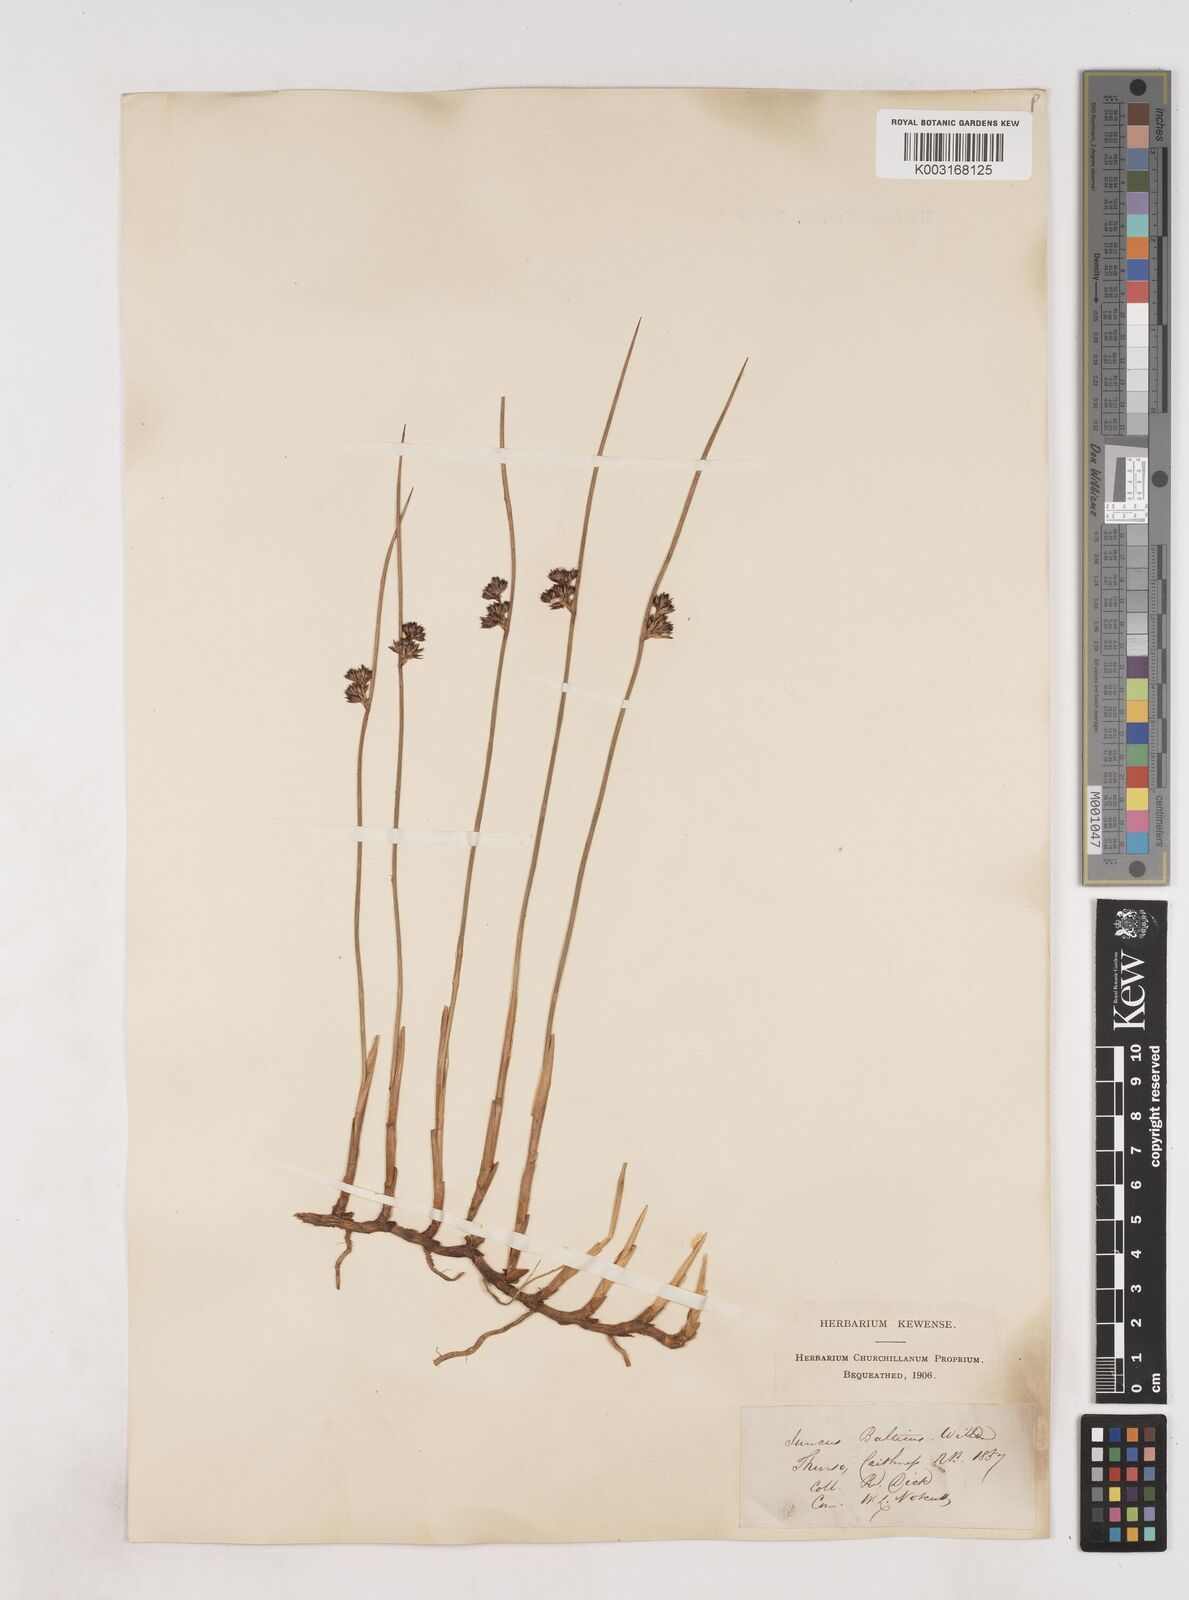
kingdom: Plantae
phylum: Tracheophyta
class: Liliopsida
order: Poales
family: Juncaceae
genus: Juncus
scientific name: Juncus balticus
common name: Baltic rush
